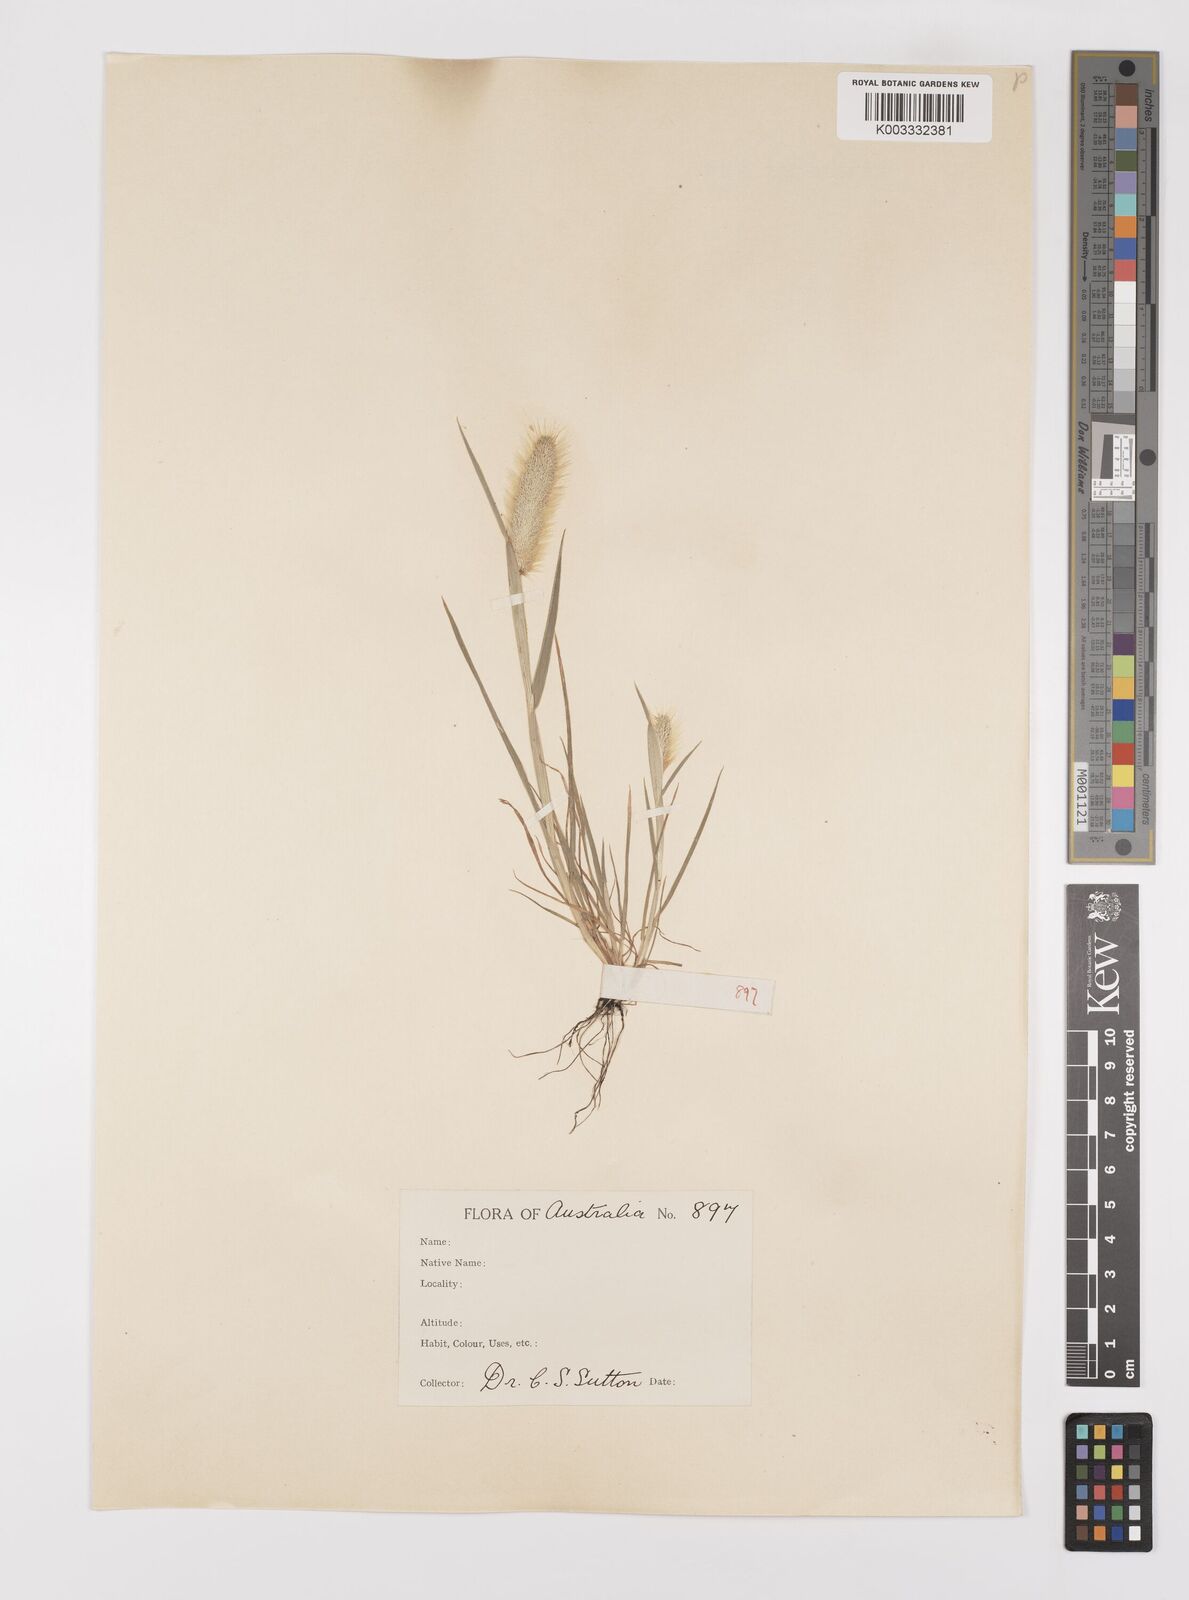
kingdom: Plantae
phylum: Tracheophyta
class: Liliopsida
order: Poales
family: Poaceae
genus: Polypogon
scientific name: Polypogon monspeliensis
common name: Annual rabbitsfoot grass
